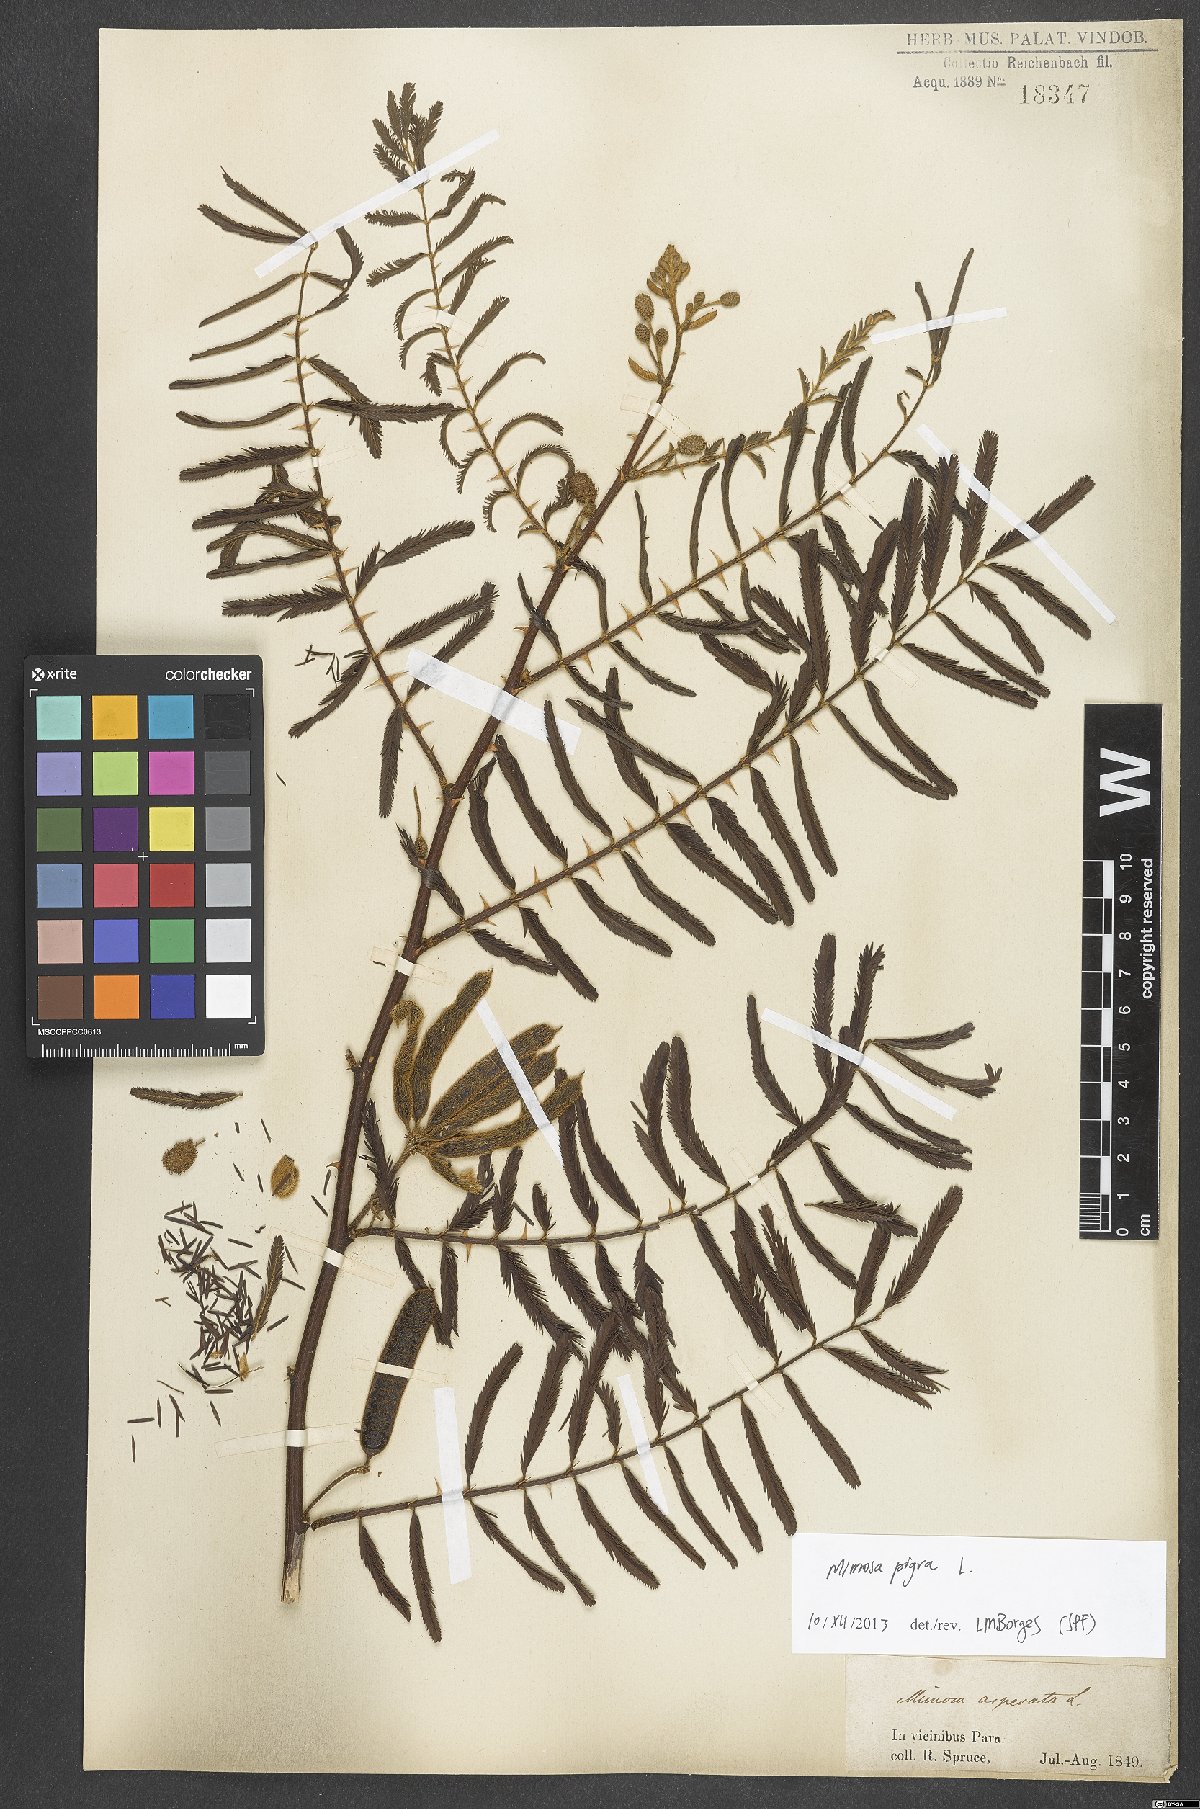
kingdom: Plantae
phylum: Tracheophyta
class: Magnoliopsida
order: Fabales
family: Fabaceae
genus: Mimosa
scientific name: Mimosa pigra
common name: Black mimosa
